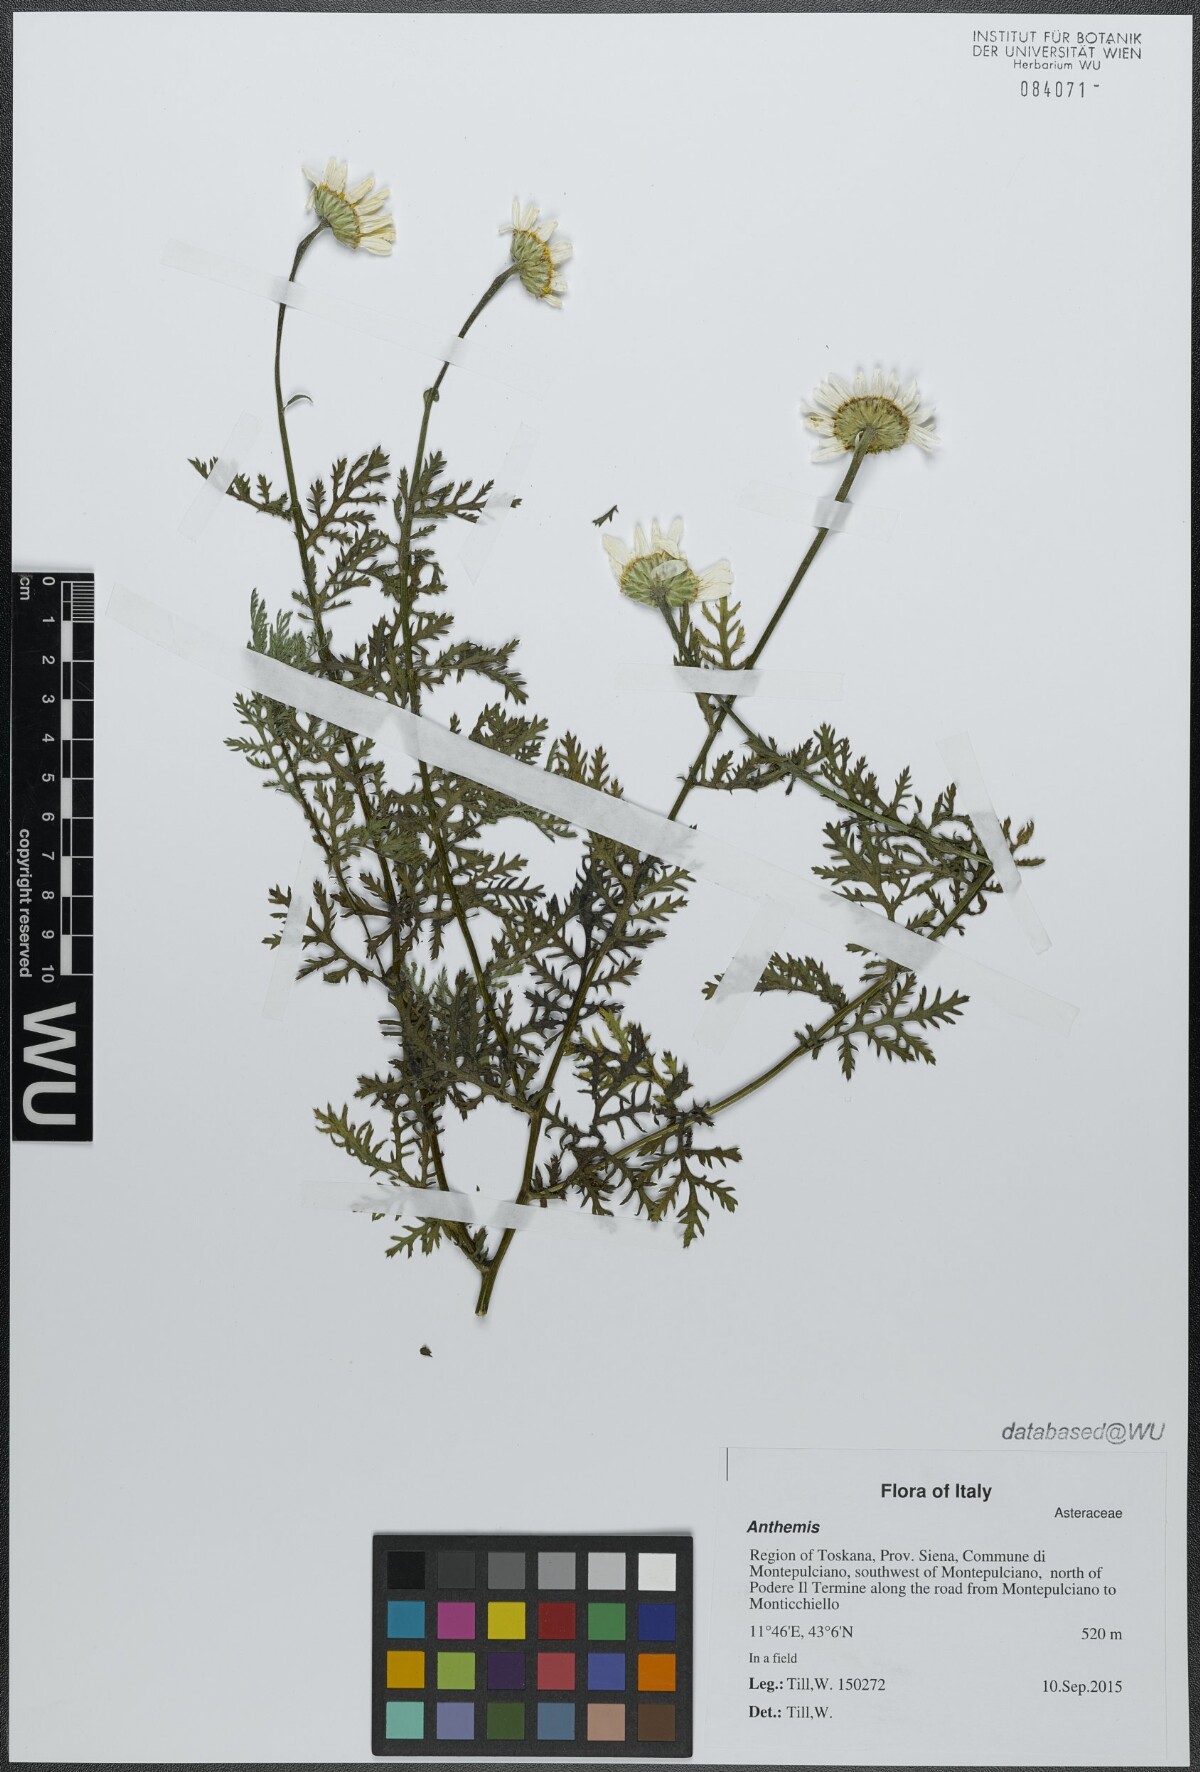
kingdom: Plantae
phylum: Tracheophyta
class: Magnoliopsida
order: Asterales
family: Asteraceae
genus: Anthemis
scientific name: Anthemis
